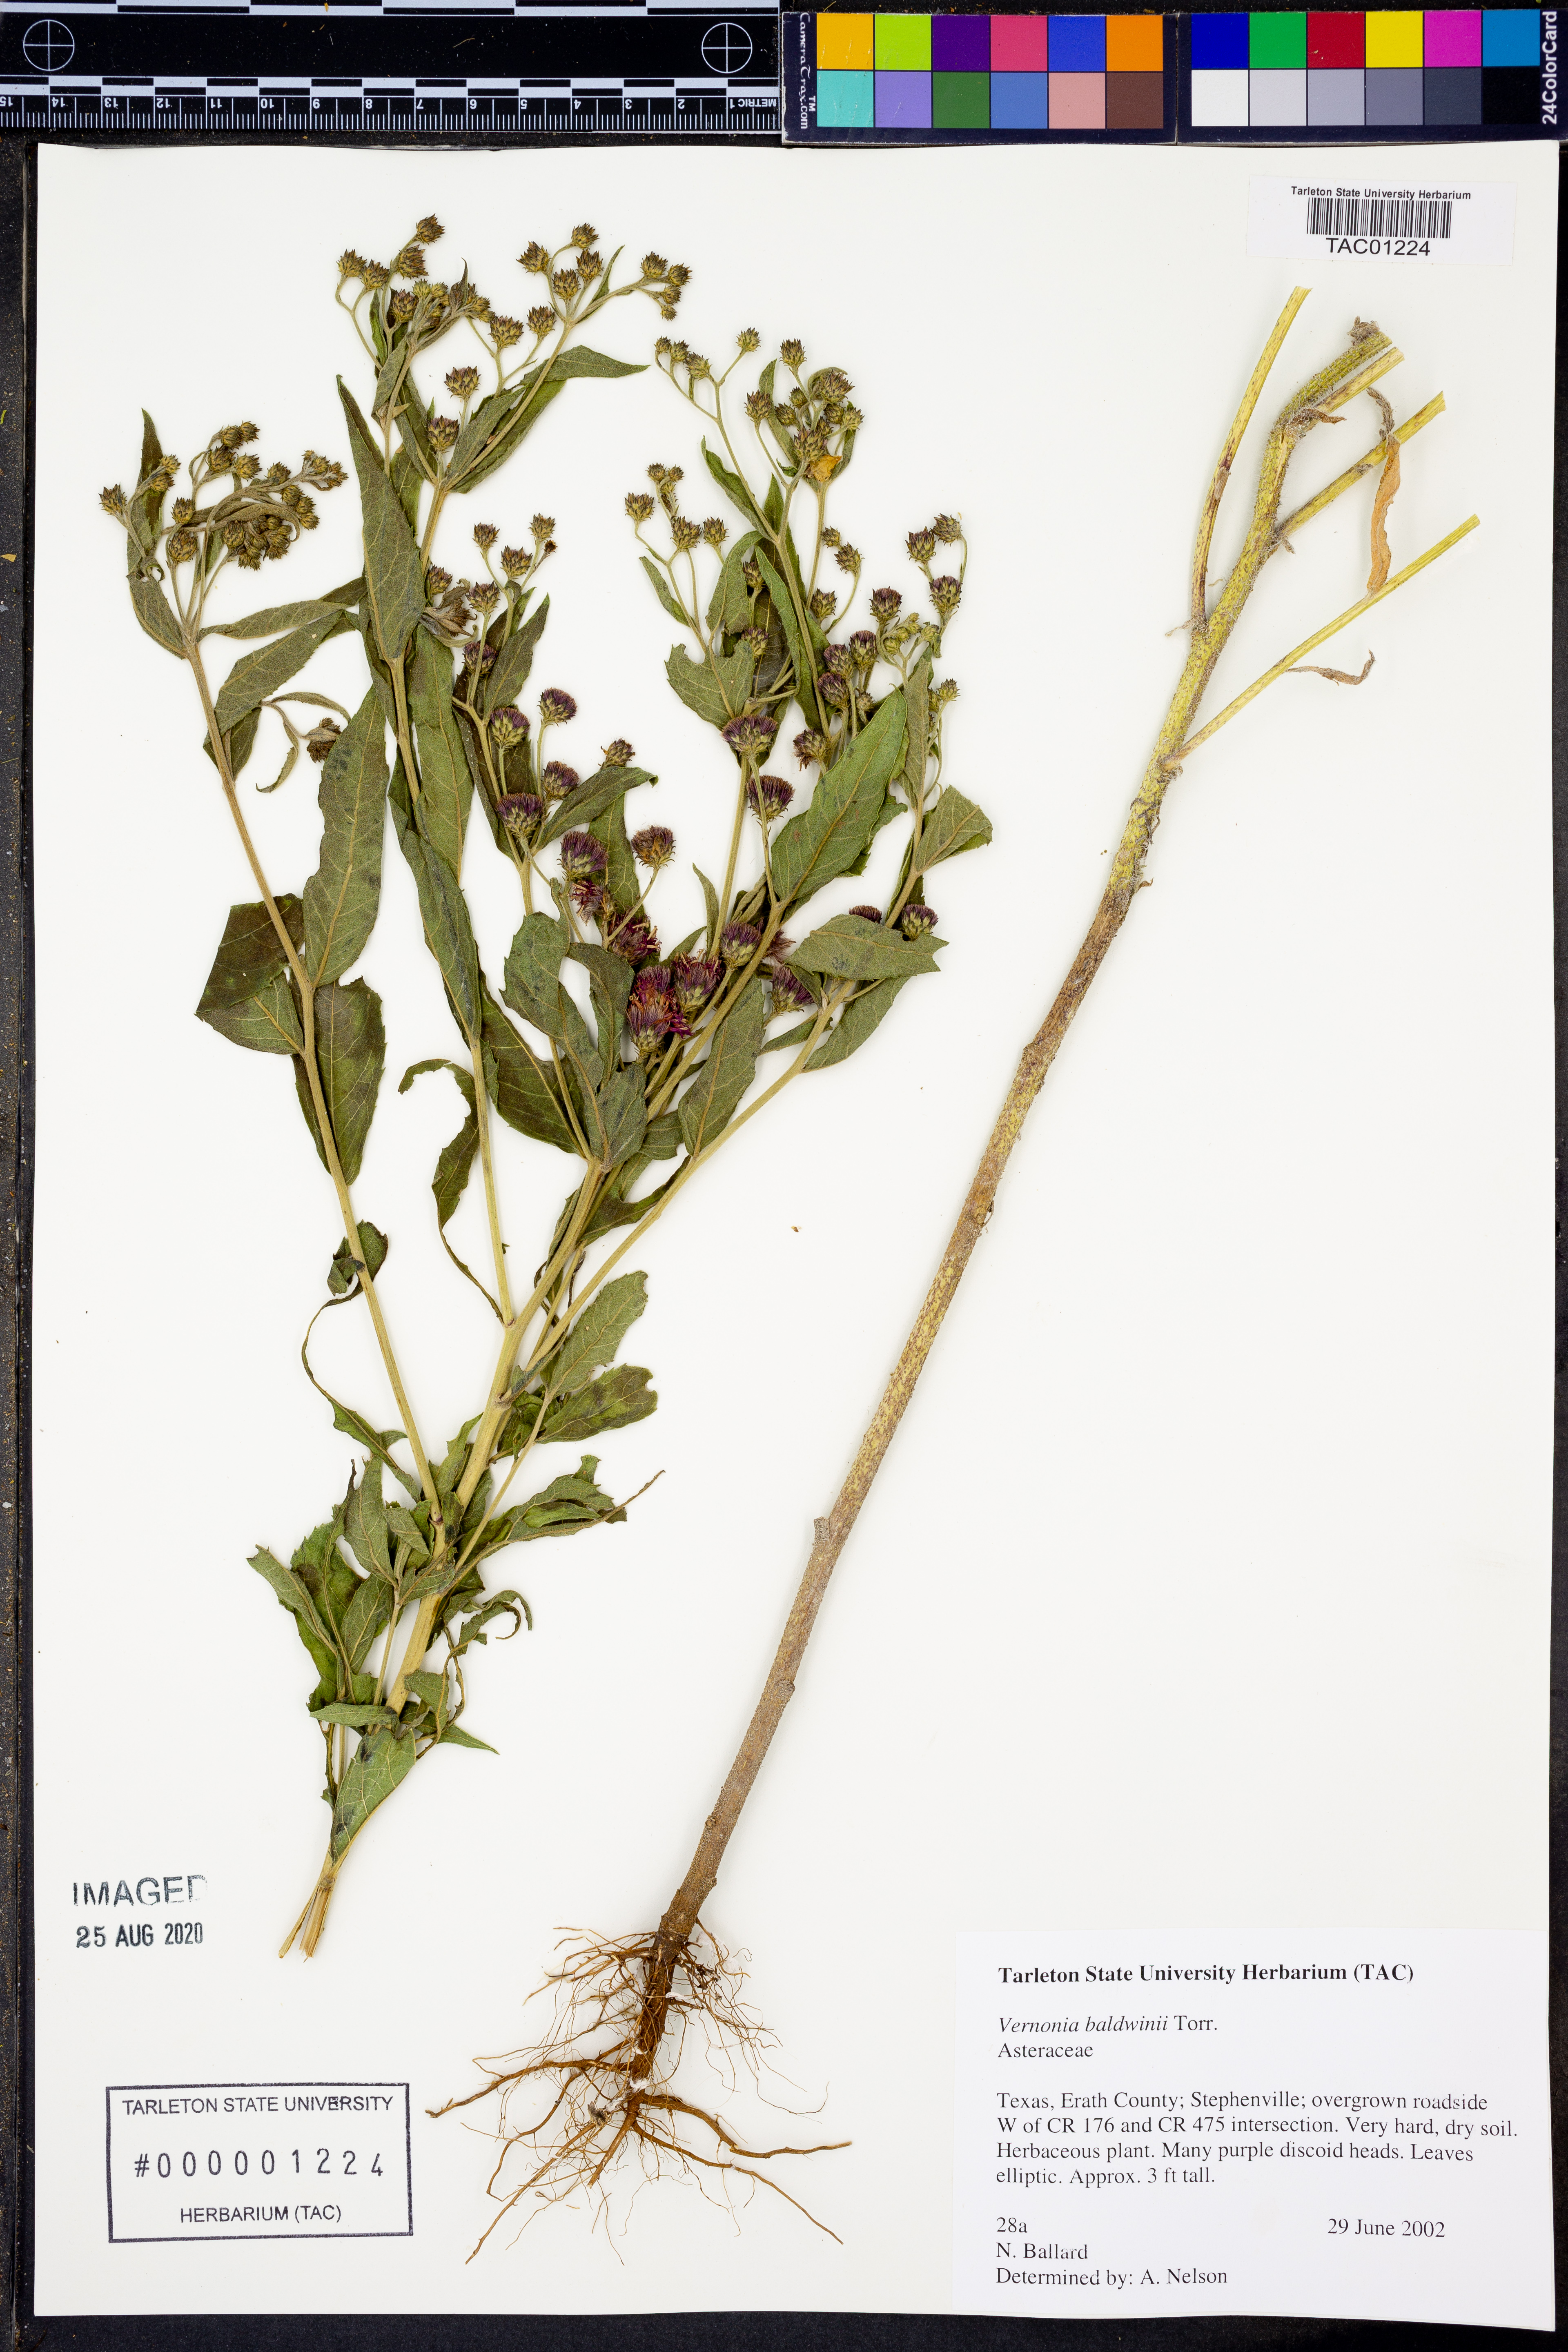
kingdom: Plantae
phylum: Tracheophyta
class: Magnoliopsida
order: Asterales
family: Asteraceae
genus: Vernonia
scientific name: Vernonia baldwinii
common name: Western ironweed
